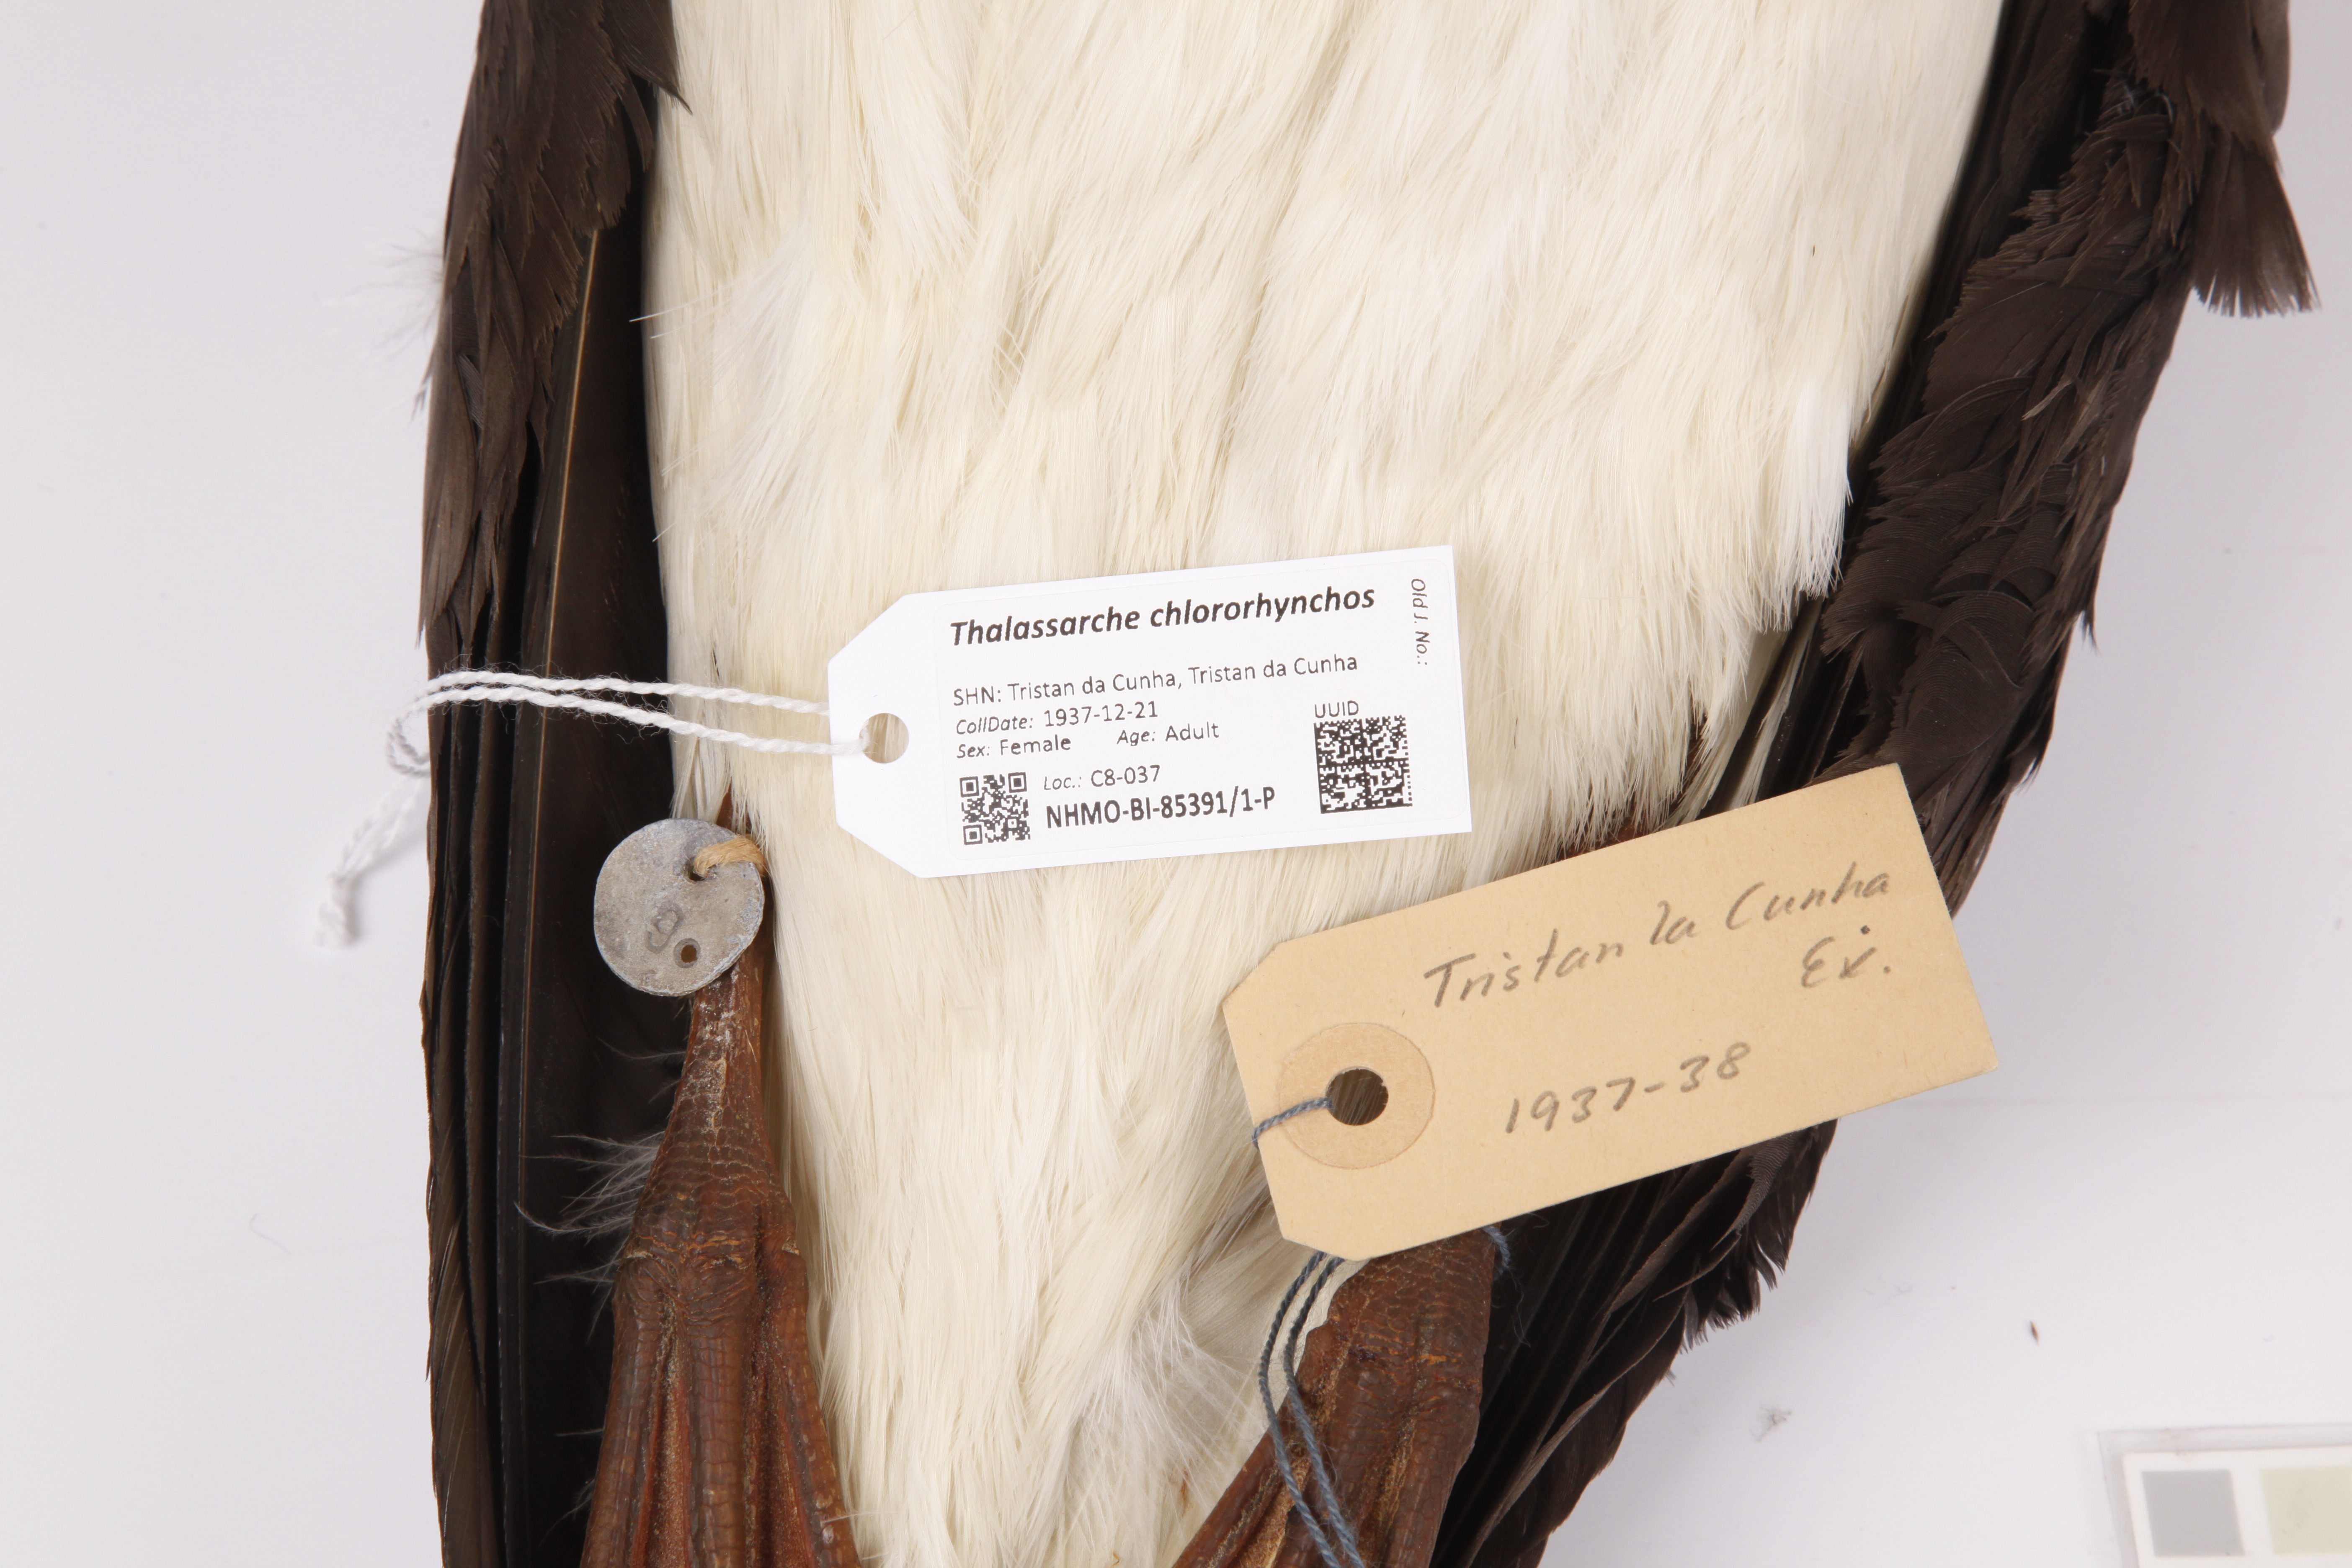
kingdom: Animalia
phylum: Chordata
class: Aves
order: Procellariiformes
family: Diomedeidae
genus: Thalassarche
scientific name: Thalassarche chlororhynchos
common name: Atlantic yellow-nosed albatross
